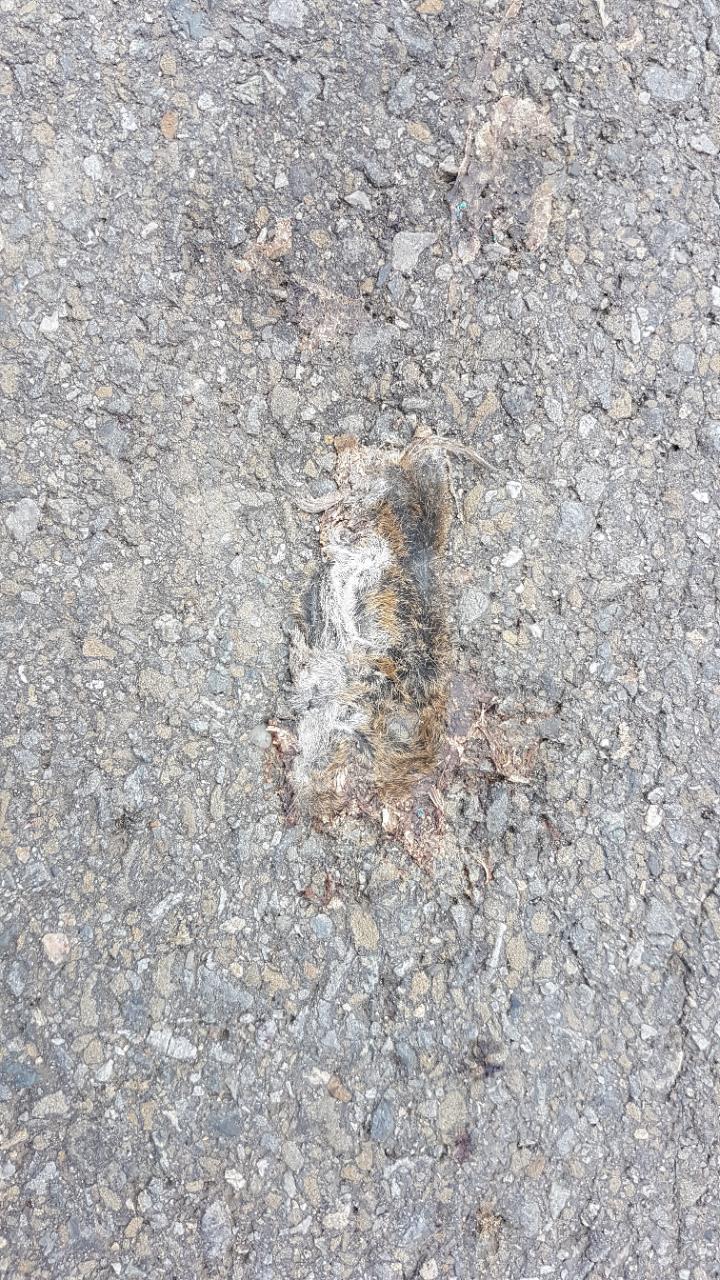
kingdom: Animalia
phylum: Chordata
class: Mammalia
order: Rodentia
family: Cricetidae
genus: Microtus
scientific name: Microtus
